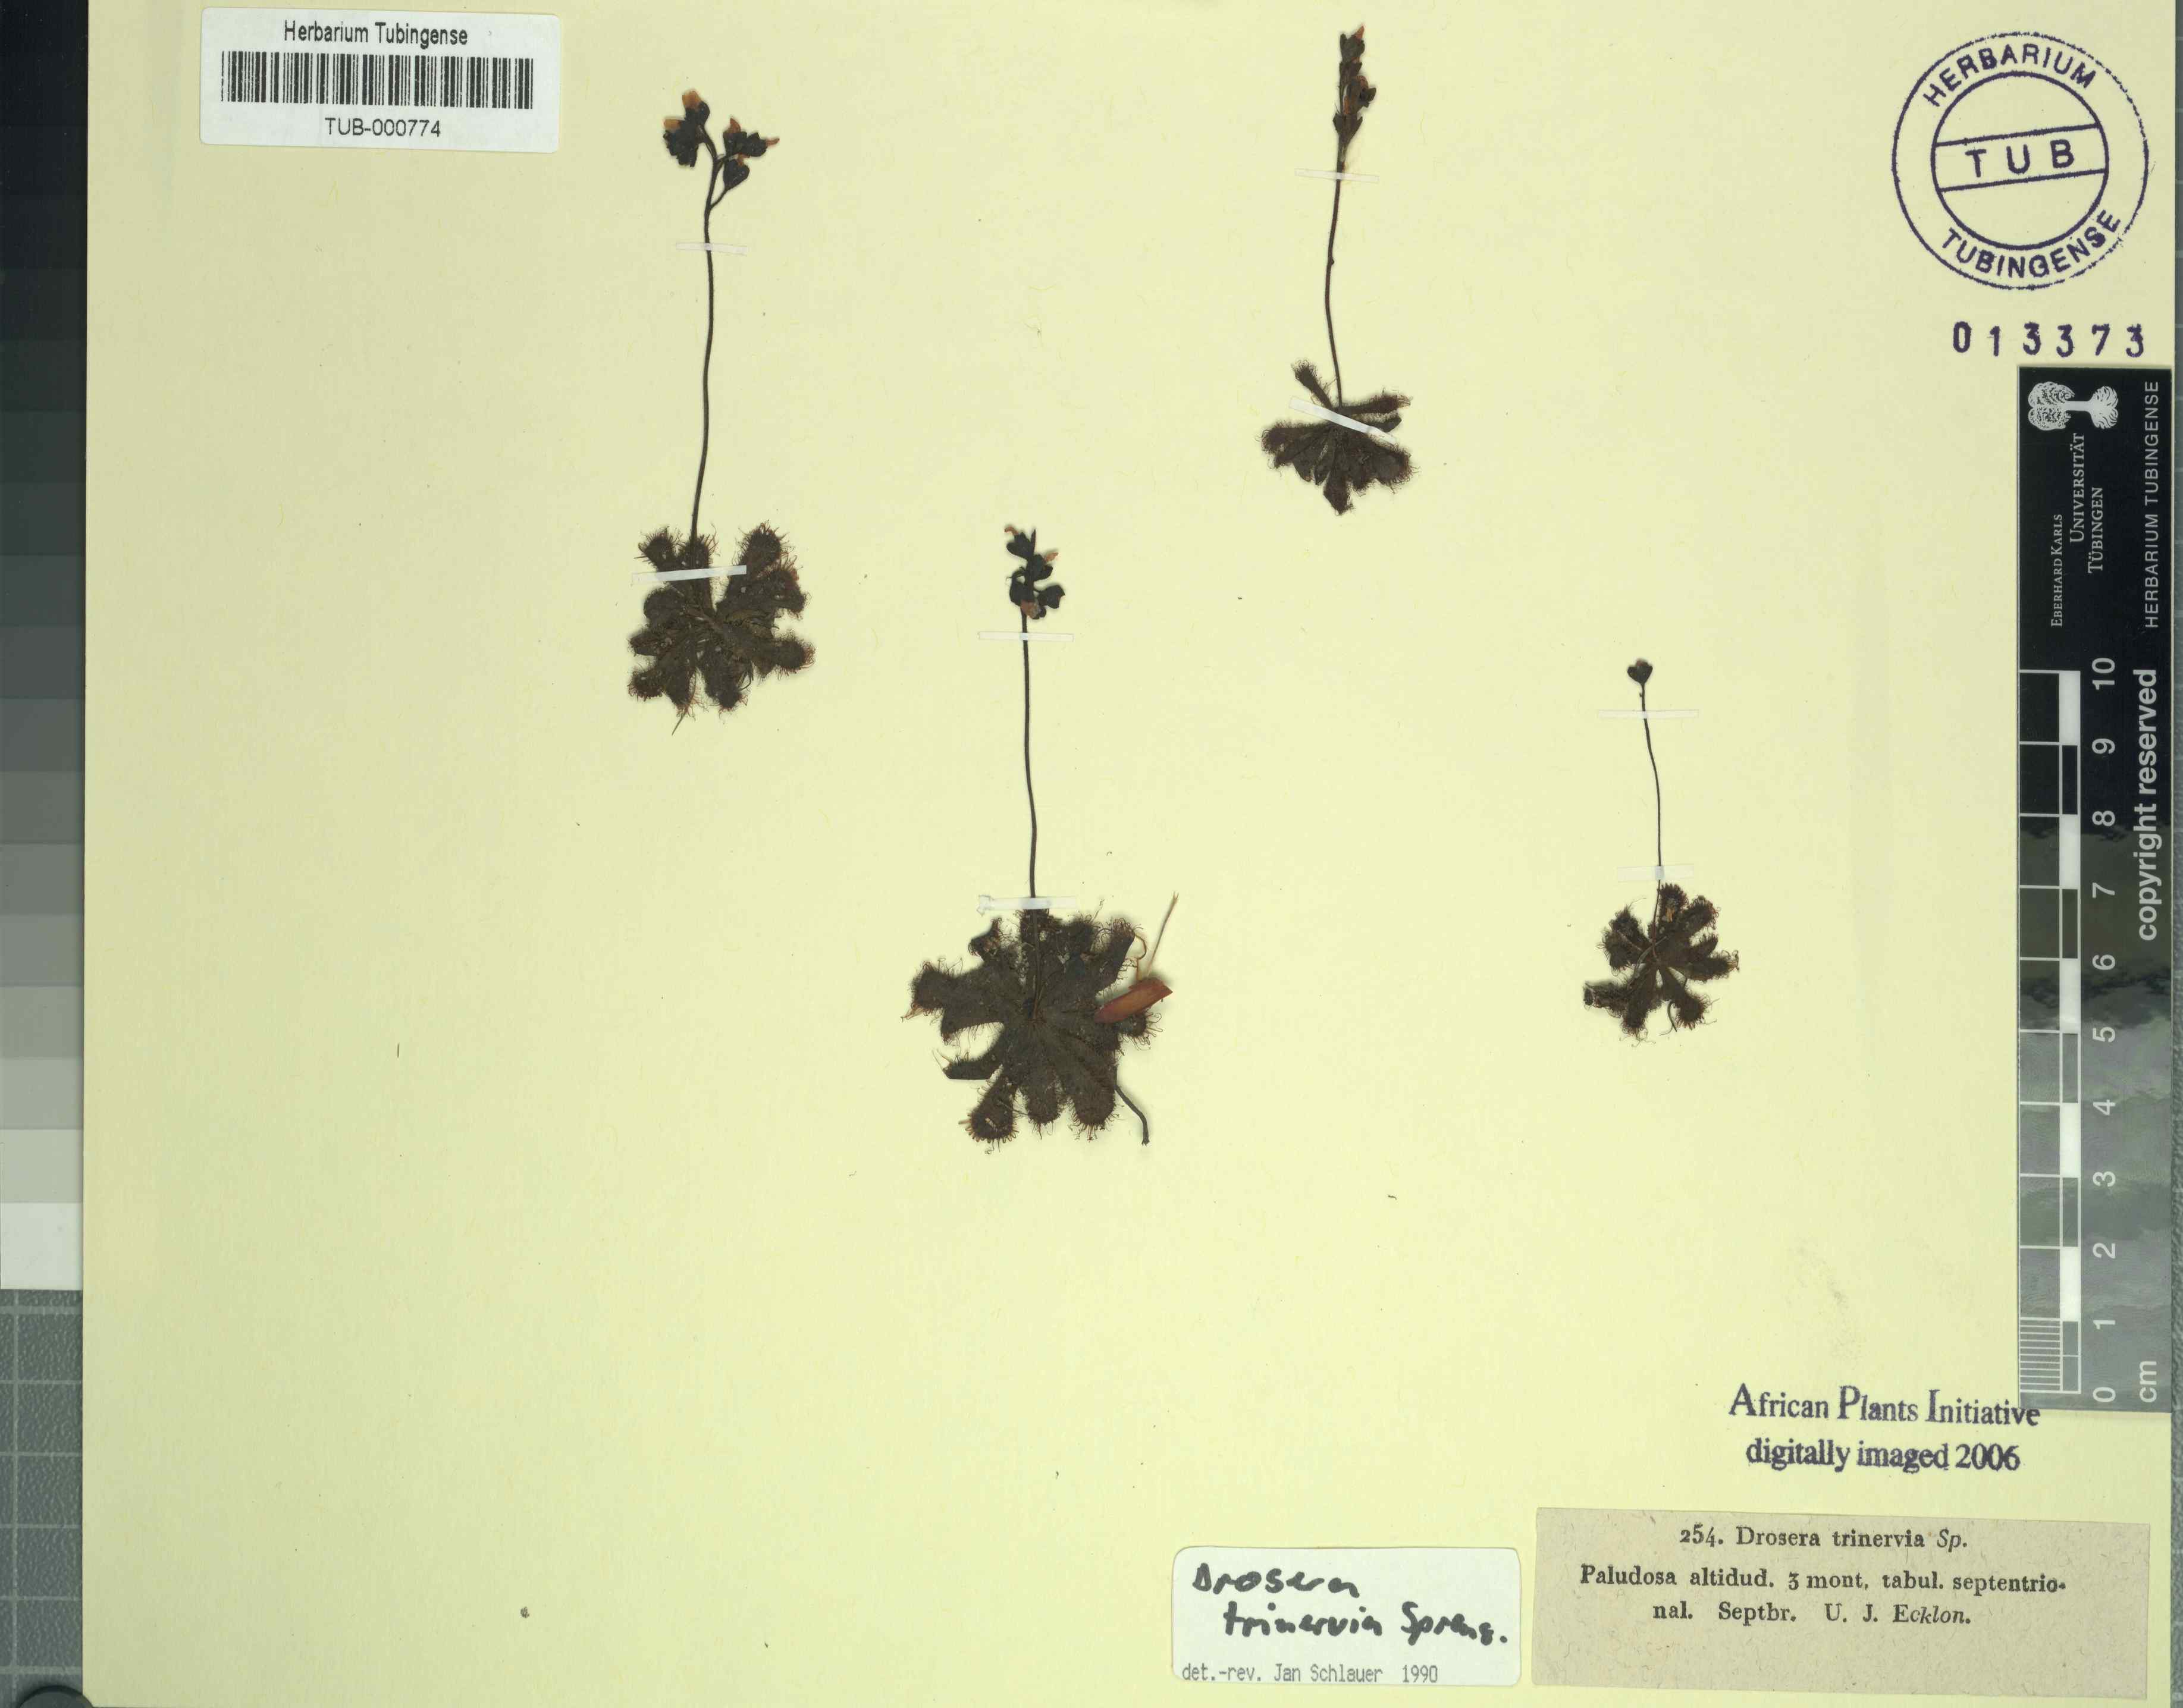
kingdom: Plantae
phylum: Tracheophyta
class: Magnoliopsida
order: Caryophyllales
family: Droseraceae
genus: Drosera
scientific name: Drosera trinervia
